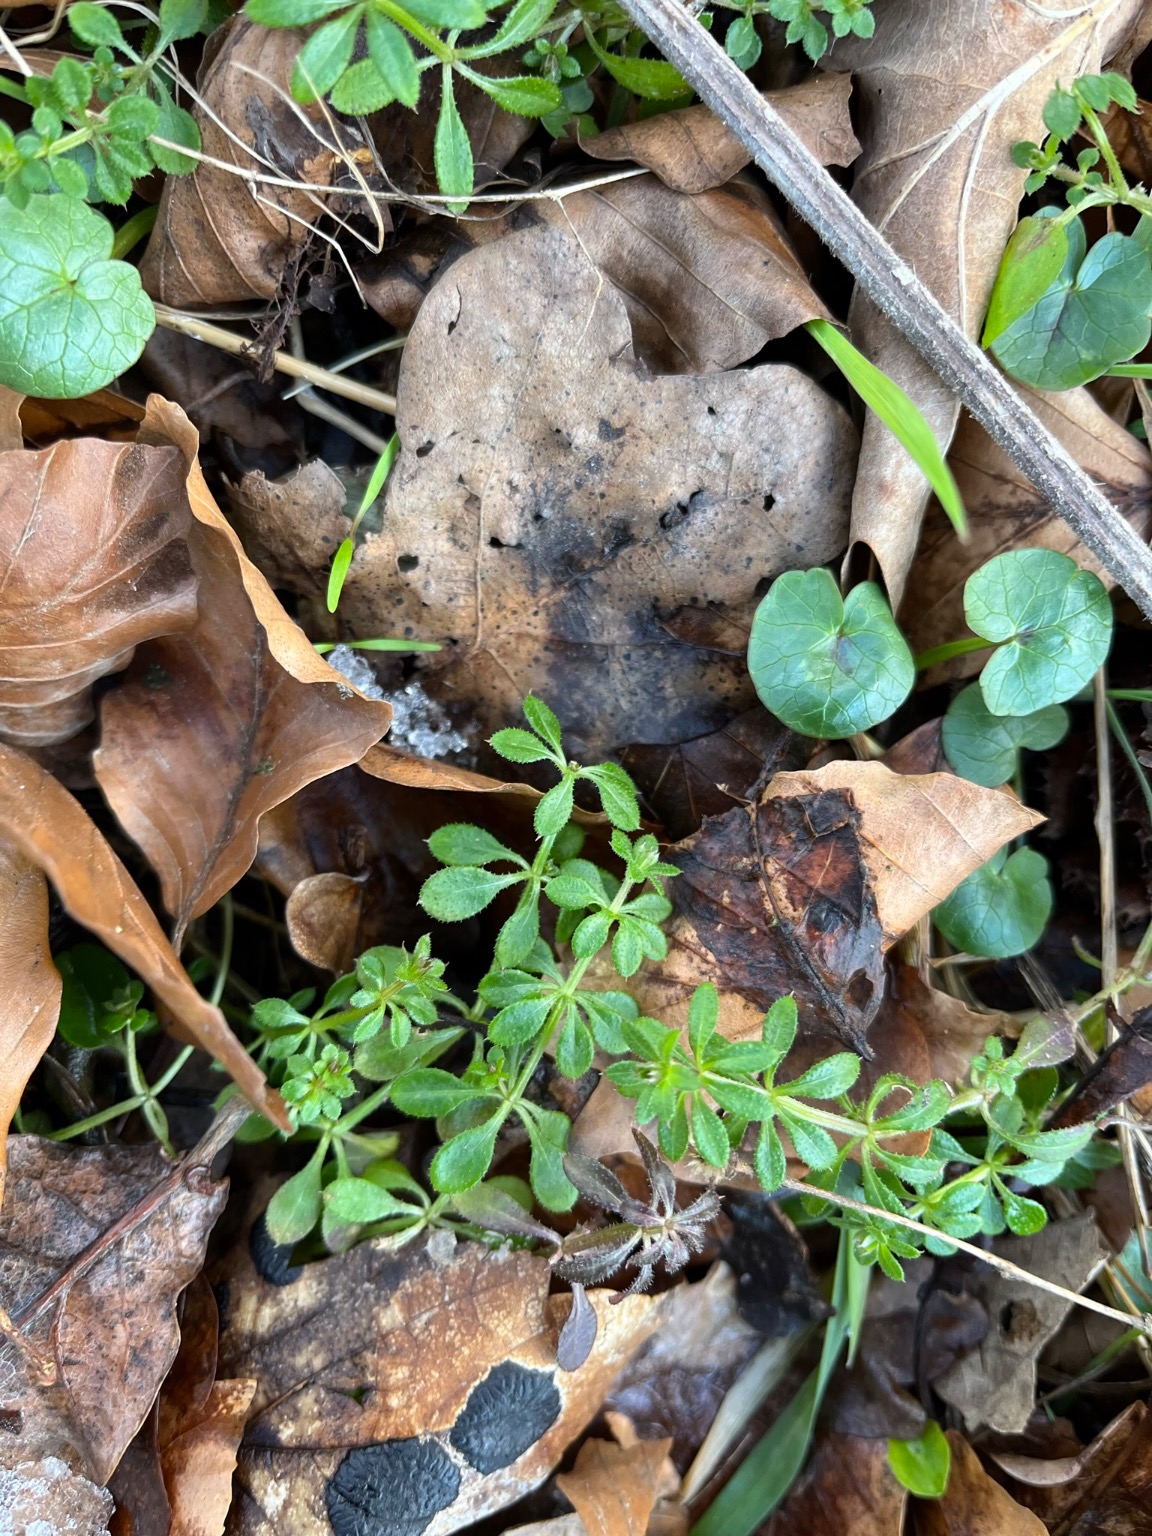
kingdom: Plantae
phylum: Tracheophyta
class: Magnoliopsida
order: Gentianales
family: Rubiaceae
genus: Galium
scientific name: Galium aparine
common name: Burre-snerre
